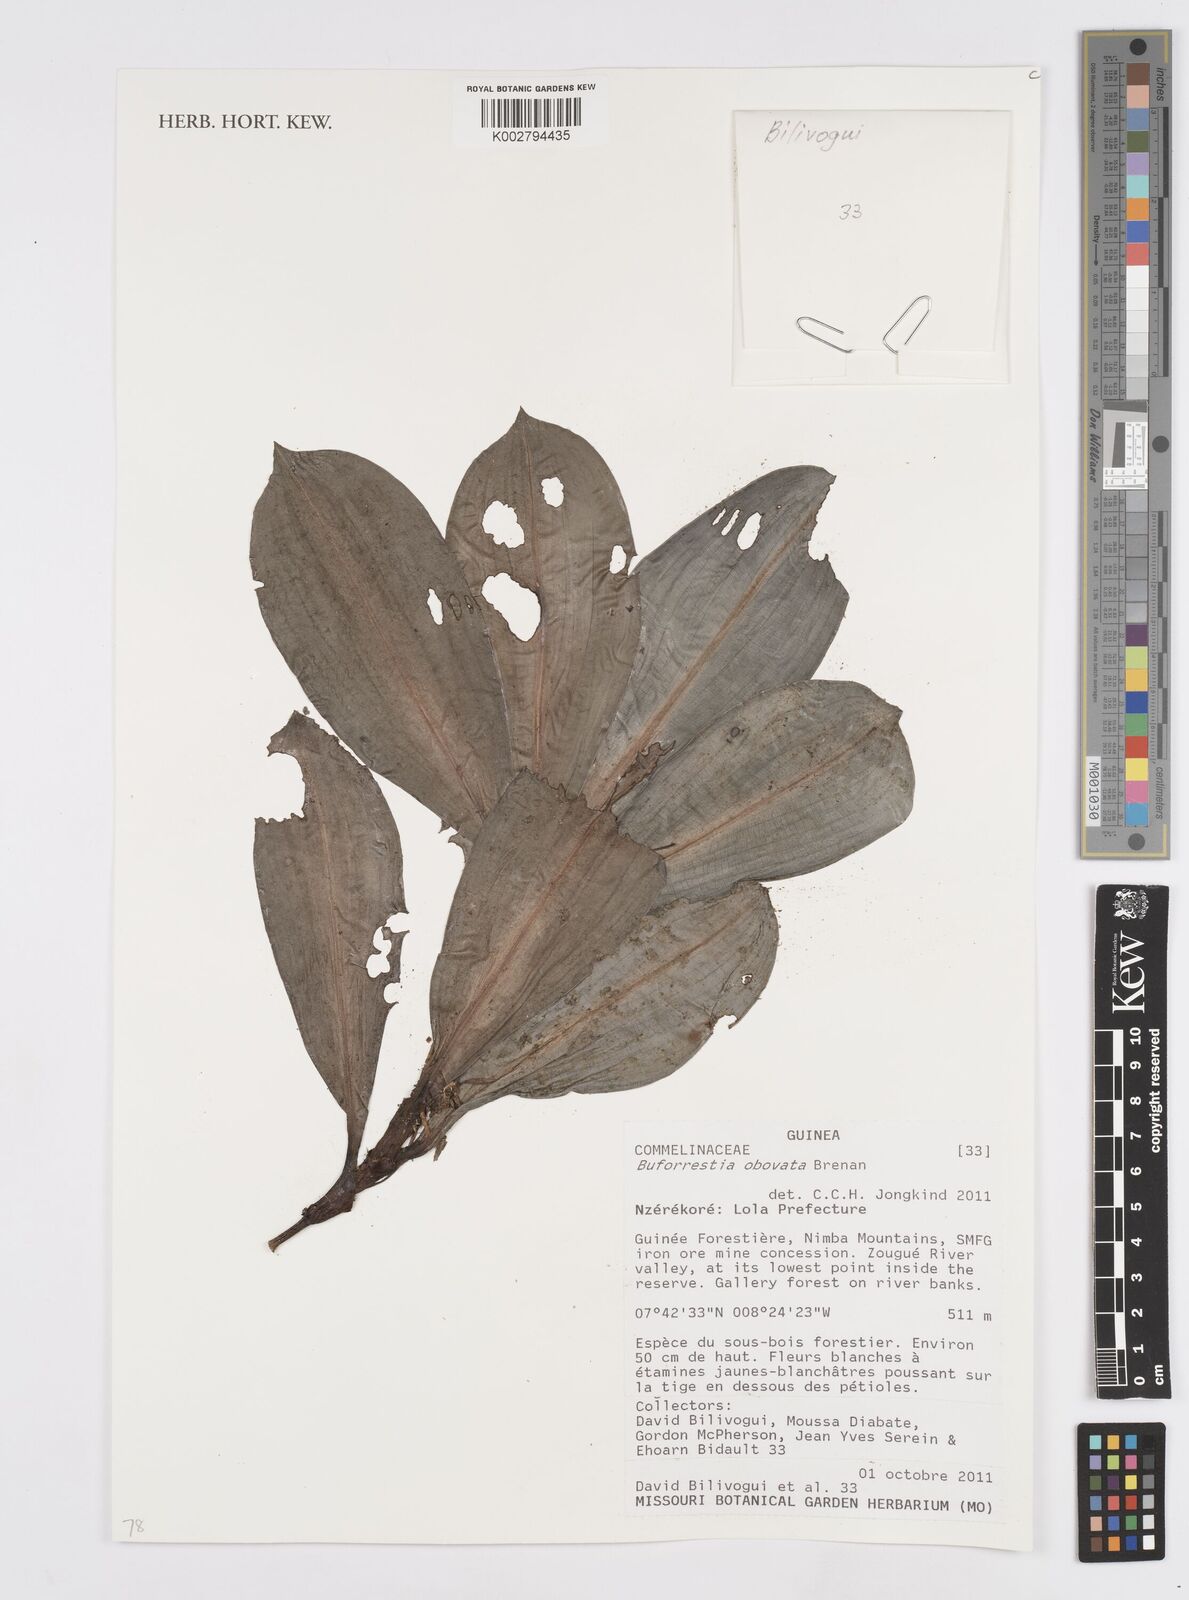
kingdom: Plantae
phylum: Tracheophyta
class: Liliopsida
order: Commelinales
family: Commelinaceae
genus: Buforrestia
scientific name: Buforrestia obovata
